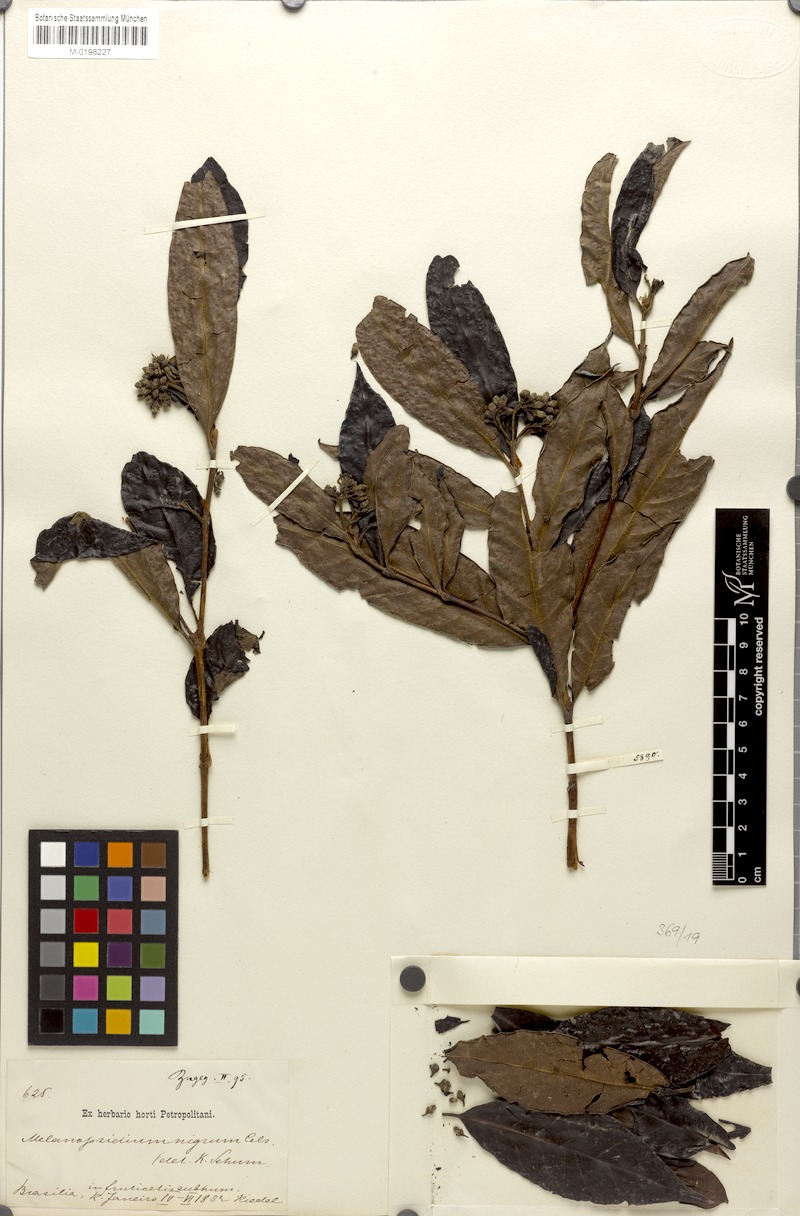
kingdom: Plantae
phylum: Tracheophyta
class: Magnoliopsida
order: Gentianales
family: Rubiaceae
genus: Melanopsidium
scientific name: Melanopsidium nigrum
